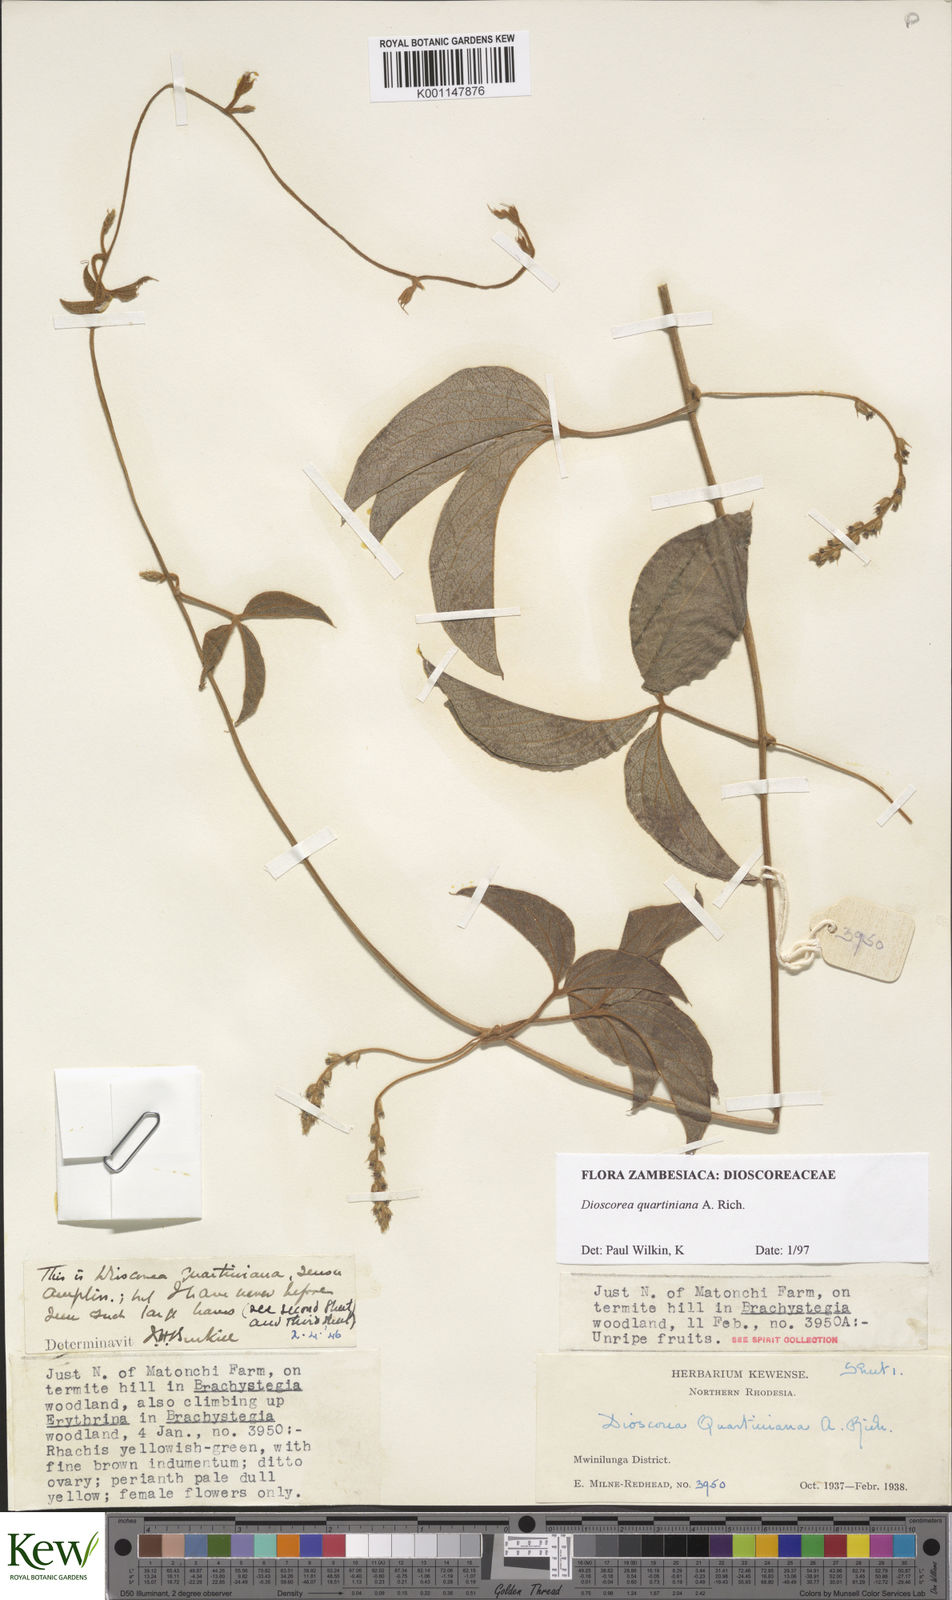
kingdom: Plantae
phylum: Tracheophyta
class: Liliopsida
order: Dioscoreales
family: Dioscoreaceae
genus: Dioscorea
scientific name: Dioscorea quartiniana
